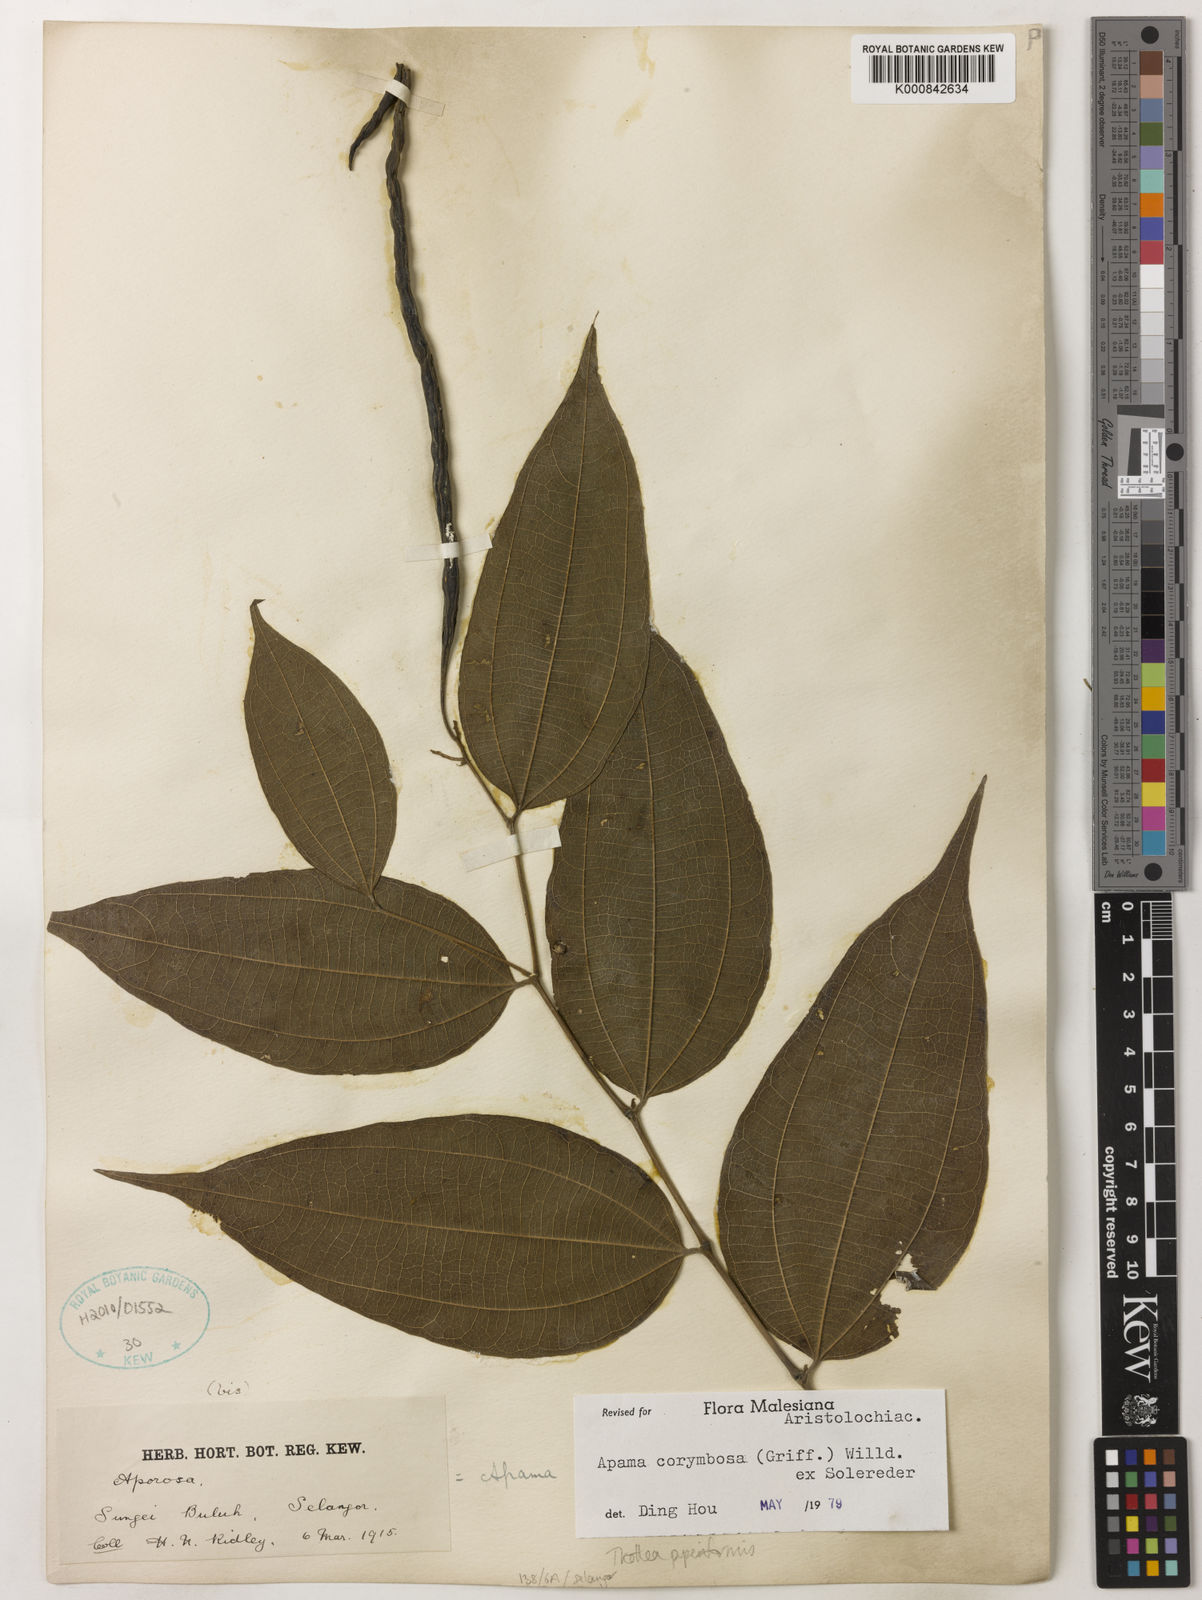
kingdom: Plantae
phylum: Tracheophyta
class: Magnoliopsida
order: Piperales
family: Aristolochiaceae
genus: Thottea
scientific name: Thottea piperiformis
